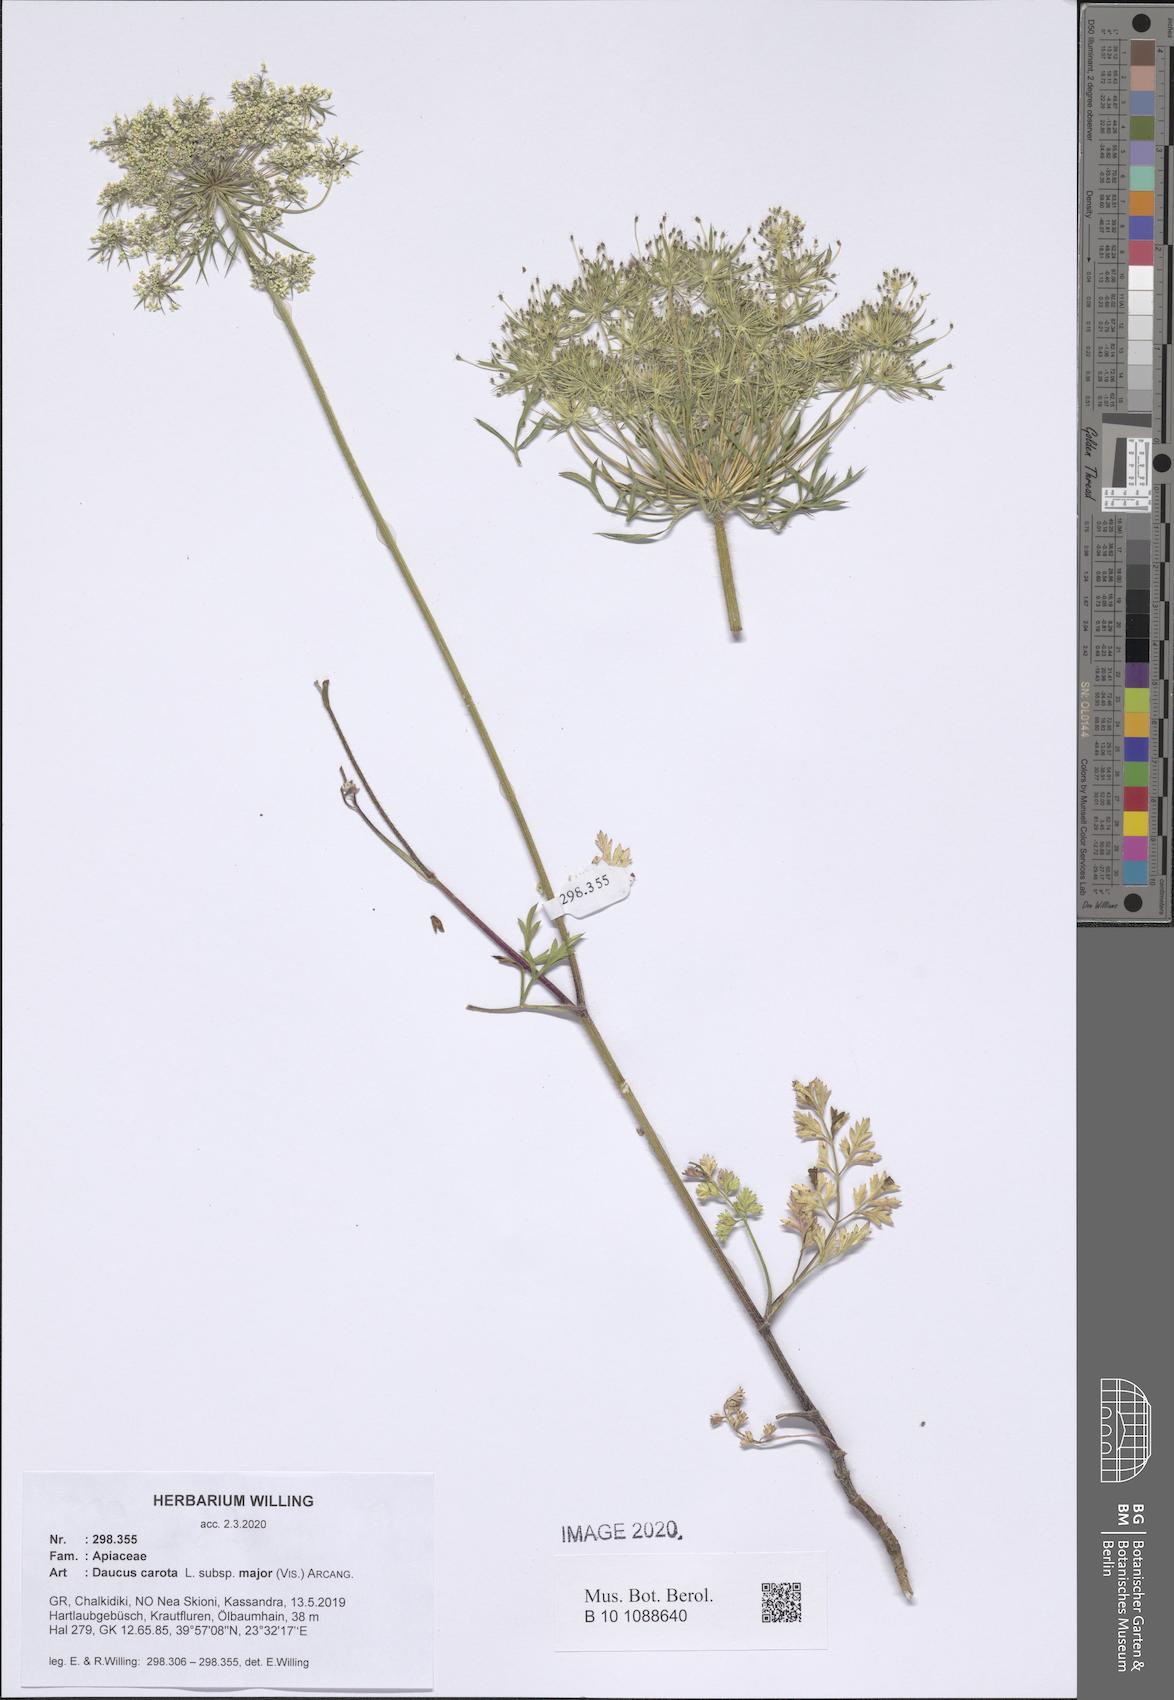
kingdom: Plantae
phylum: Tracheophyta
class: Magnoliopsida
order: Apiales
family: Apiaceae
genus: Daucus
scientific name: Daucus carota
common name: Wild carrot
